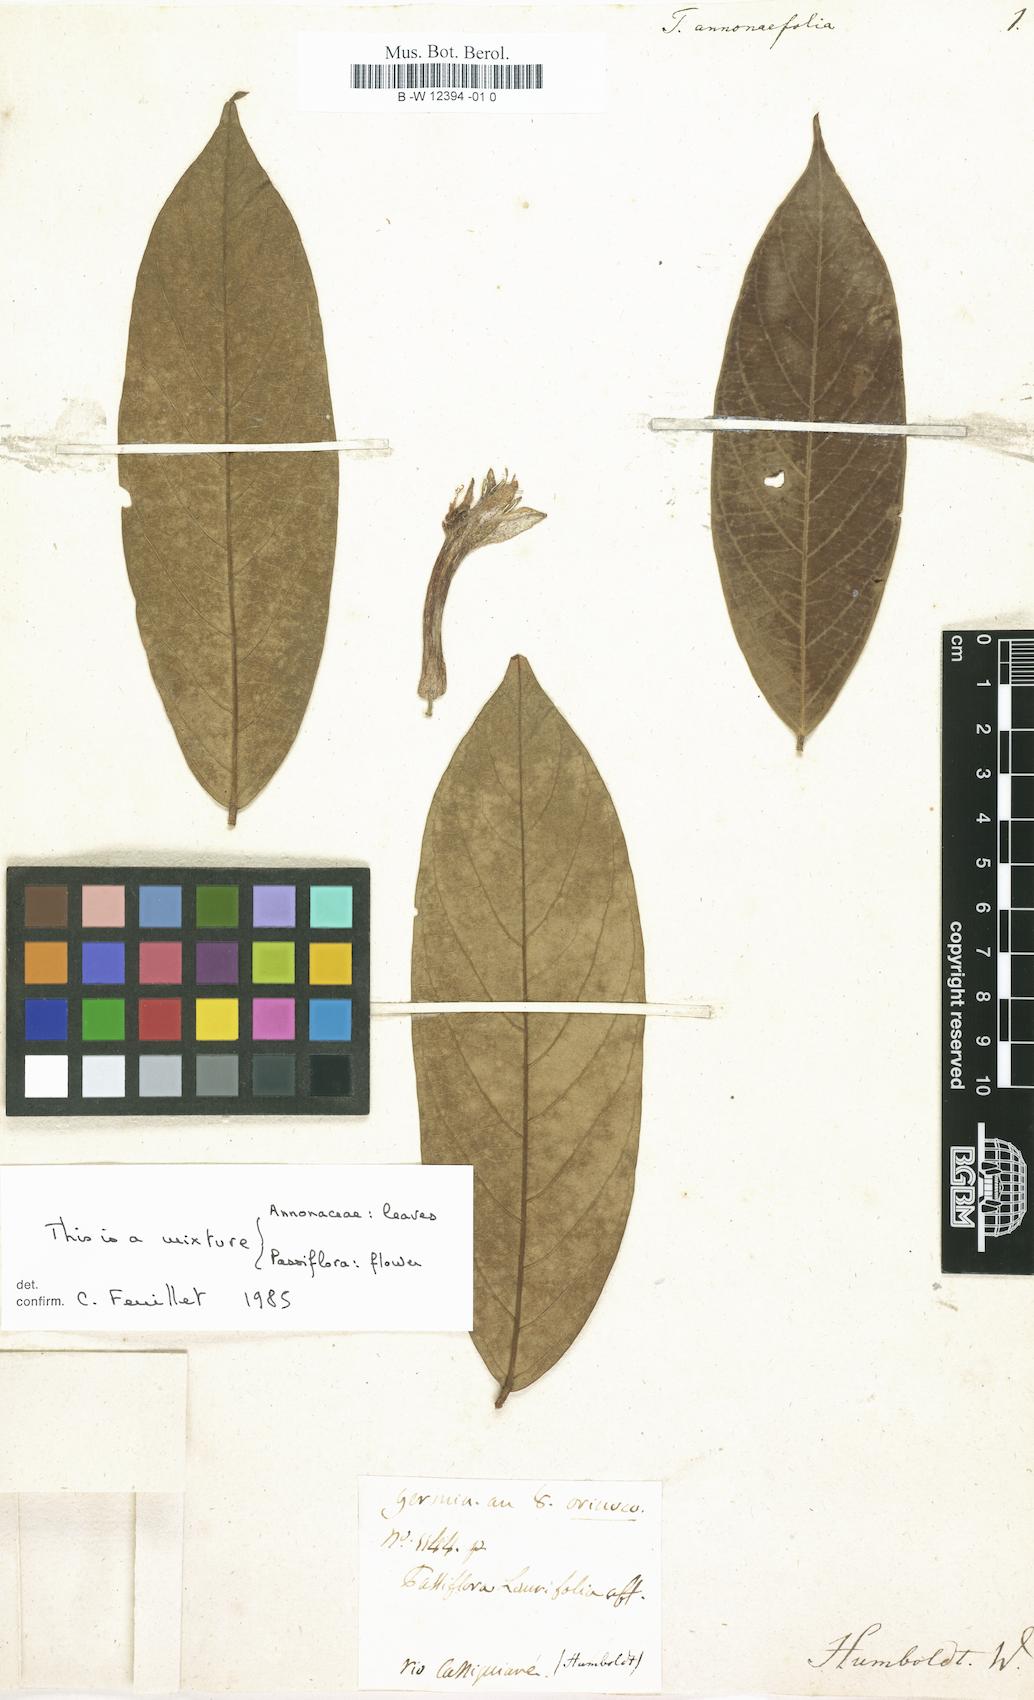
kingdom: Plantae
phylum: Tracheophyta
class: Magnoliopsida
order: Malpighiales
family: Passifloraceae
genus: Passiflora
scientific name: Passiflora
